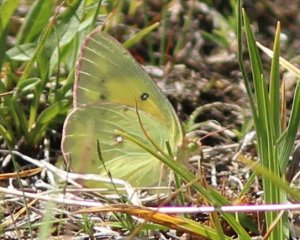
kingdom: Animalia
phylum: Arthropoda
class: Insecta
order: Lepidoptera
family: Pieridae
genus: Colias
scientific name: Colias eurytheme
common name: Orange Sulphur
